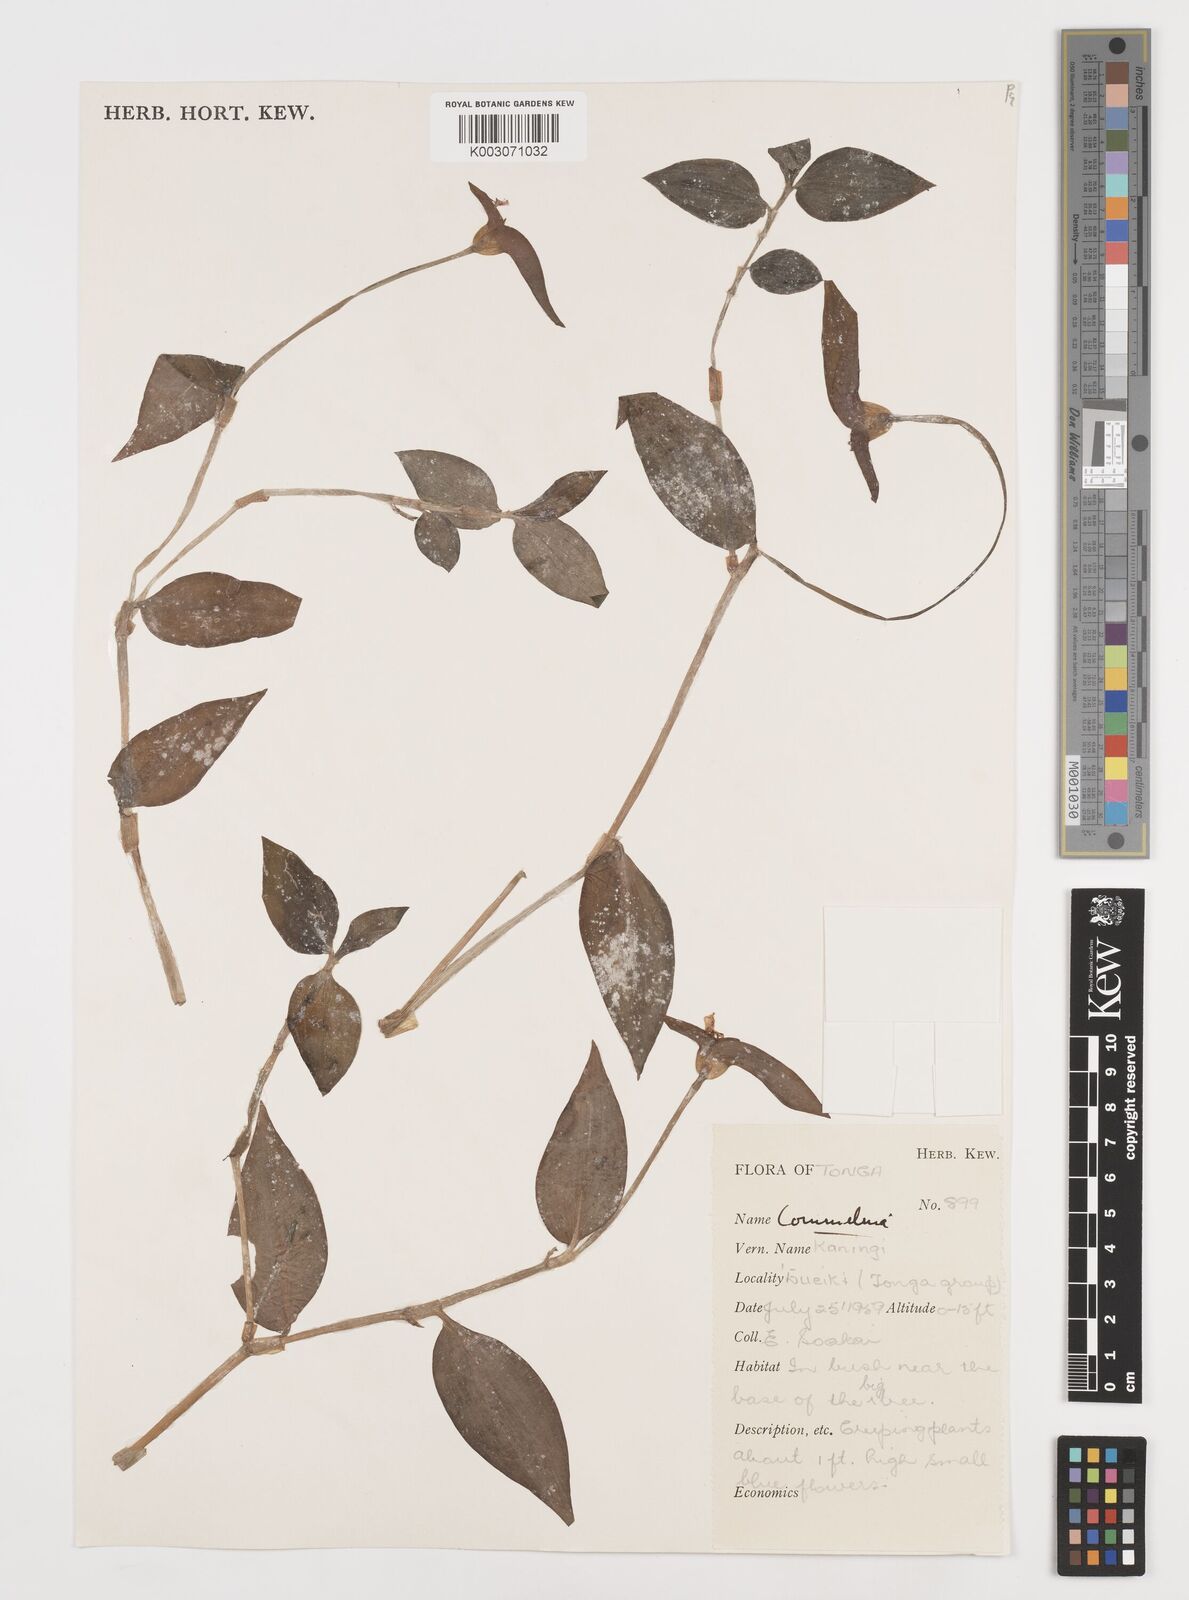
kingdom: Plantae
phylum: Tracheophyta
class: Liliopsida
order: Commelinales
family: Commelinaceae
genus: Commelina
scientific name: Commelina
